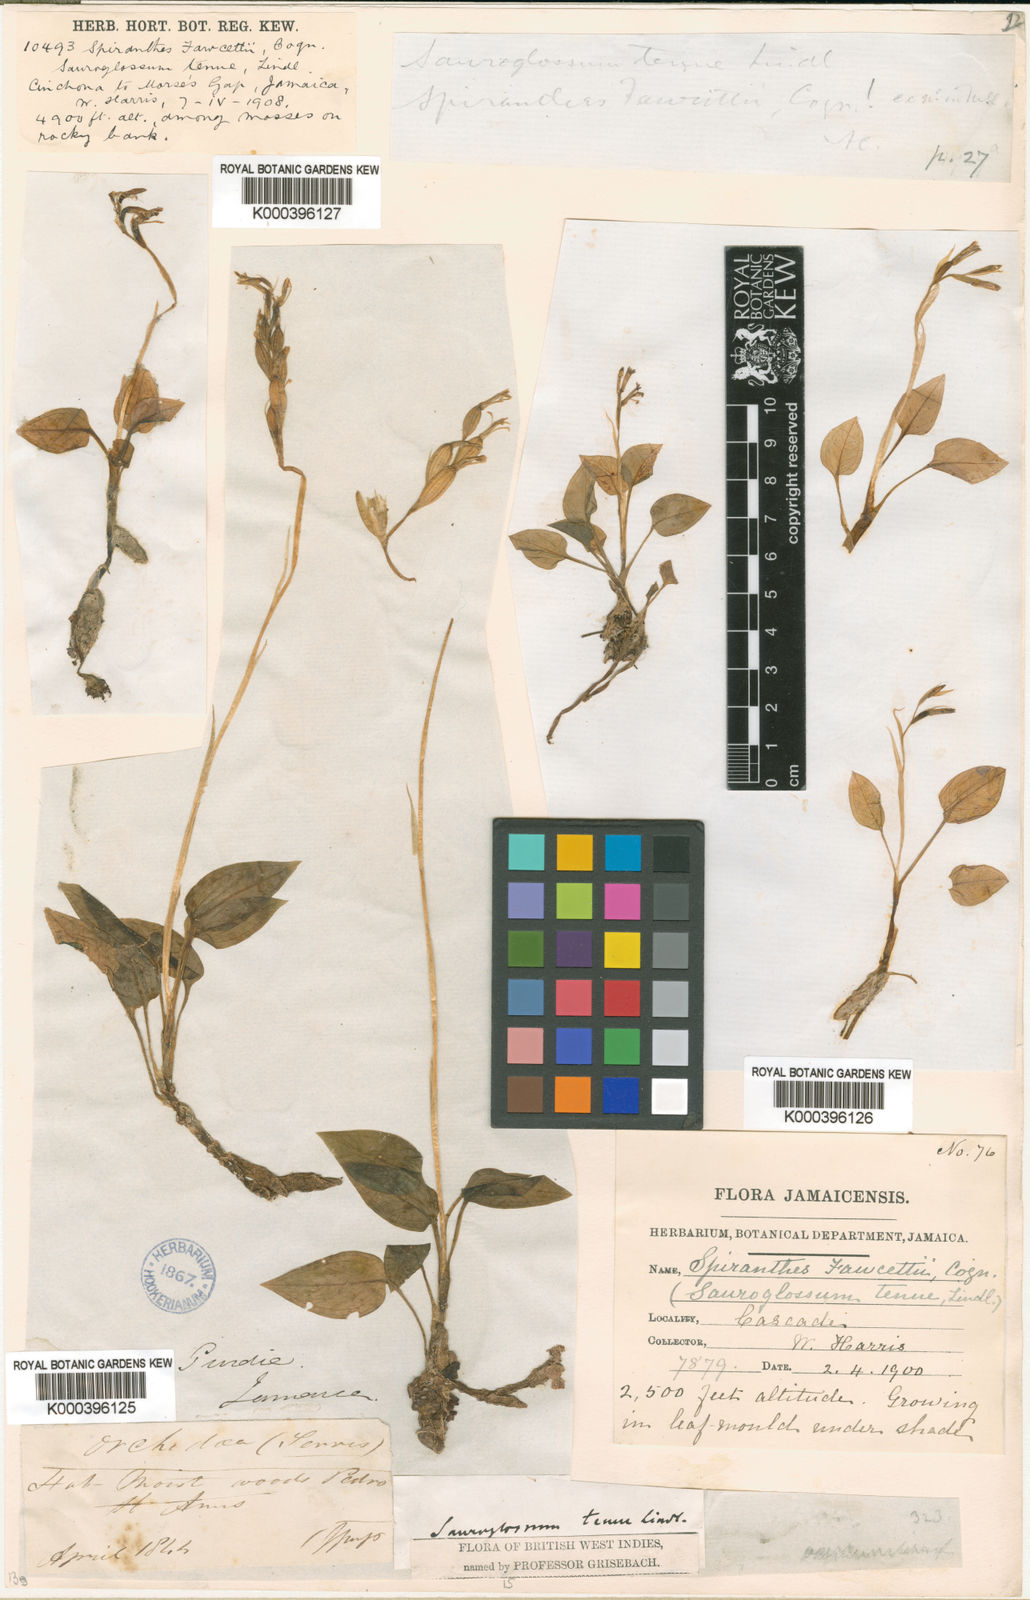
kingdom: Plantae
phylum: Tracheophyta
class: Liliopsida
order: Asparagales
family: Orchidaceae
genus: Hapalorchis
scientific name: Hapalorchis lineata
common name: Tropical ladies'-tresses
